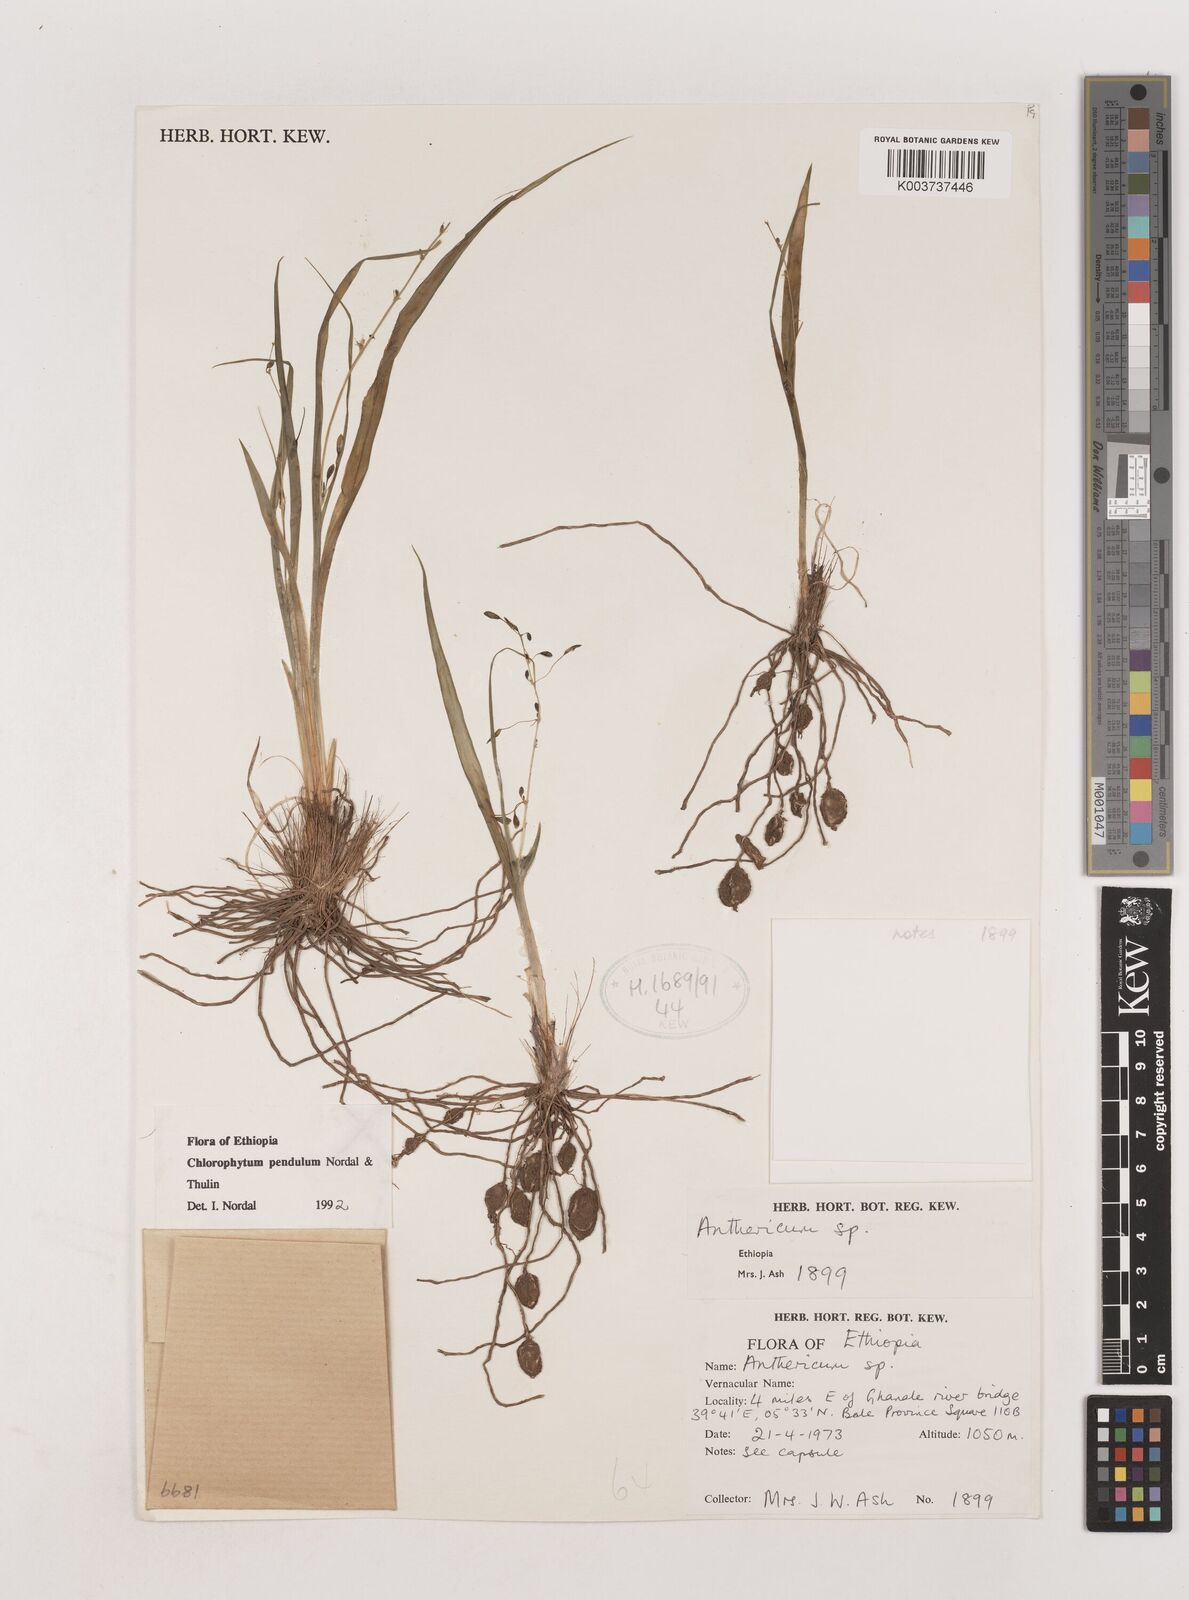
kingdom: Plantae
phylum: Tracheophyta
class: Liliopsida
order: Asparagales
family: Asparagaceae
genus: Chlorophytum
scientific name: Chlorophytum pendulum
